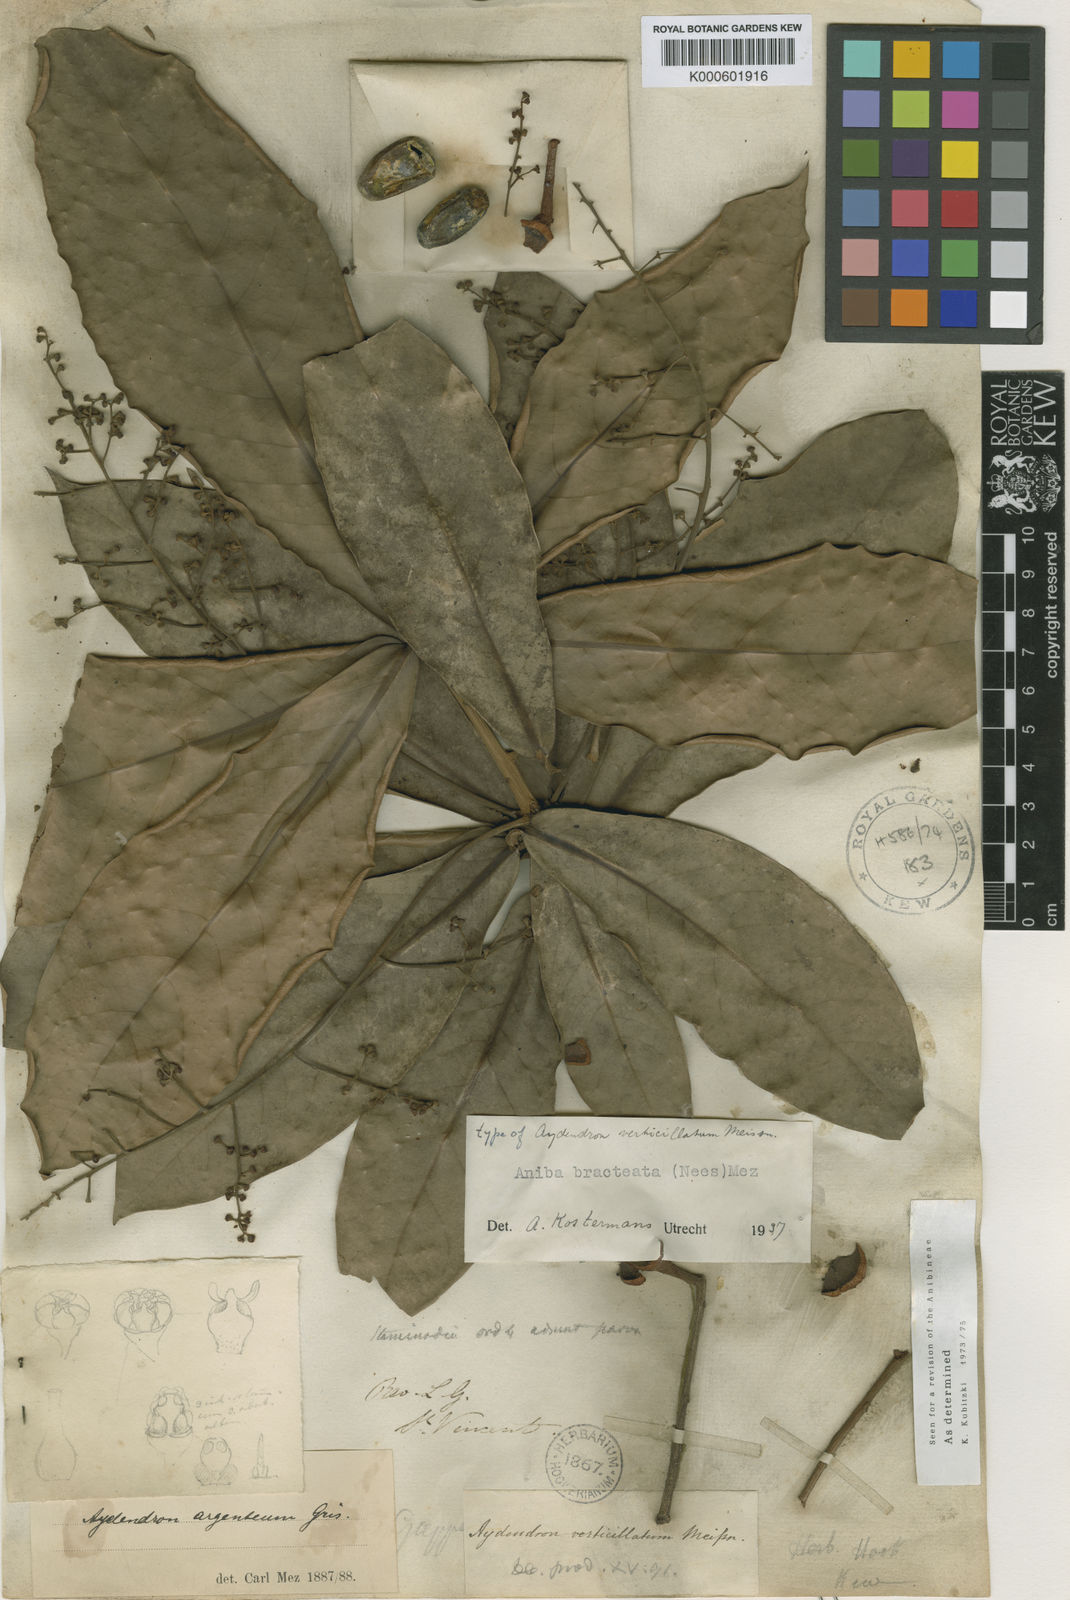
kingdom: Plantae
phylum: Tracheophyta
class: Magnoliopsida
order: Laurales
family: Lauraceae
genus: Aniba
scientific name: Aniba bracteata
